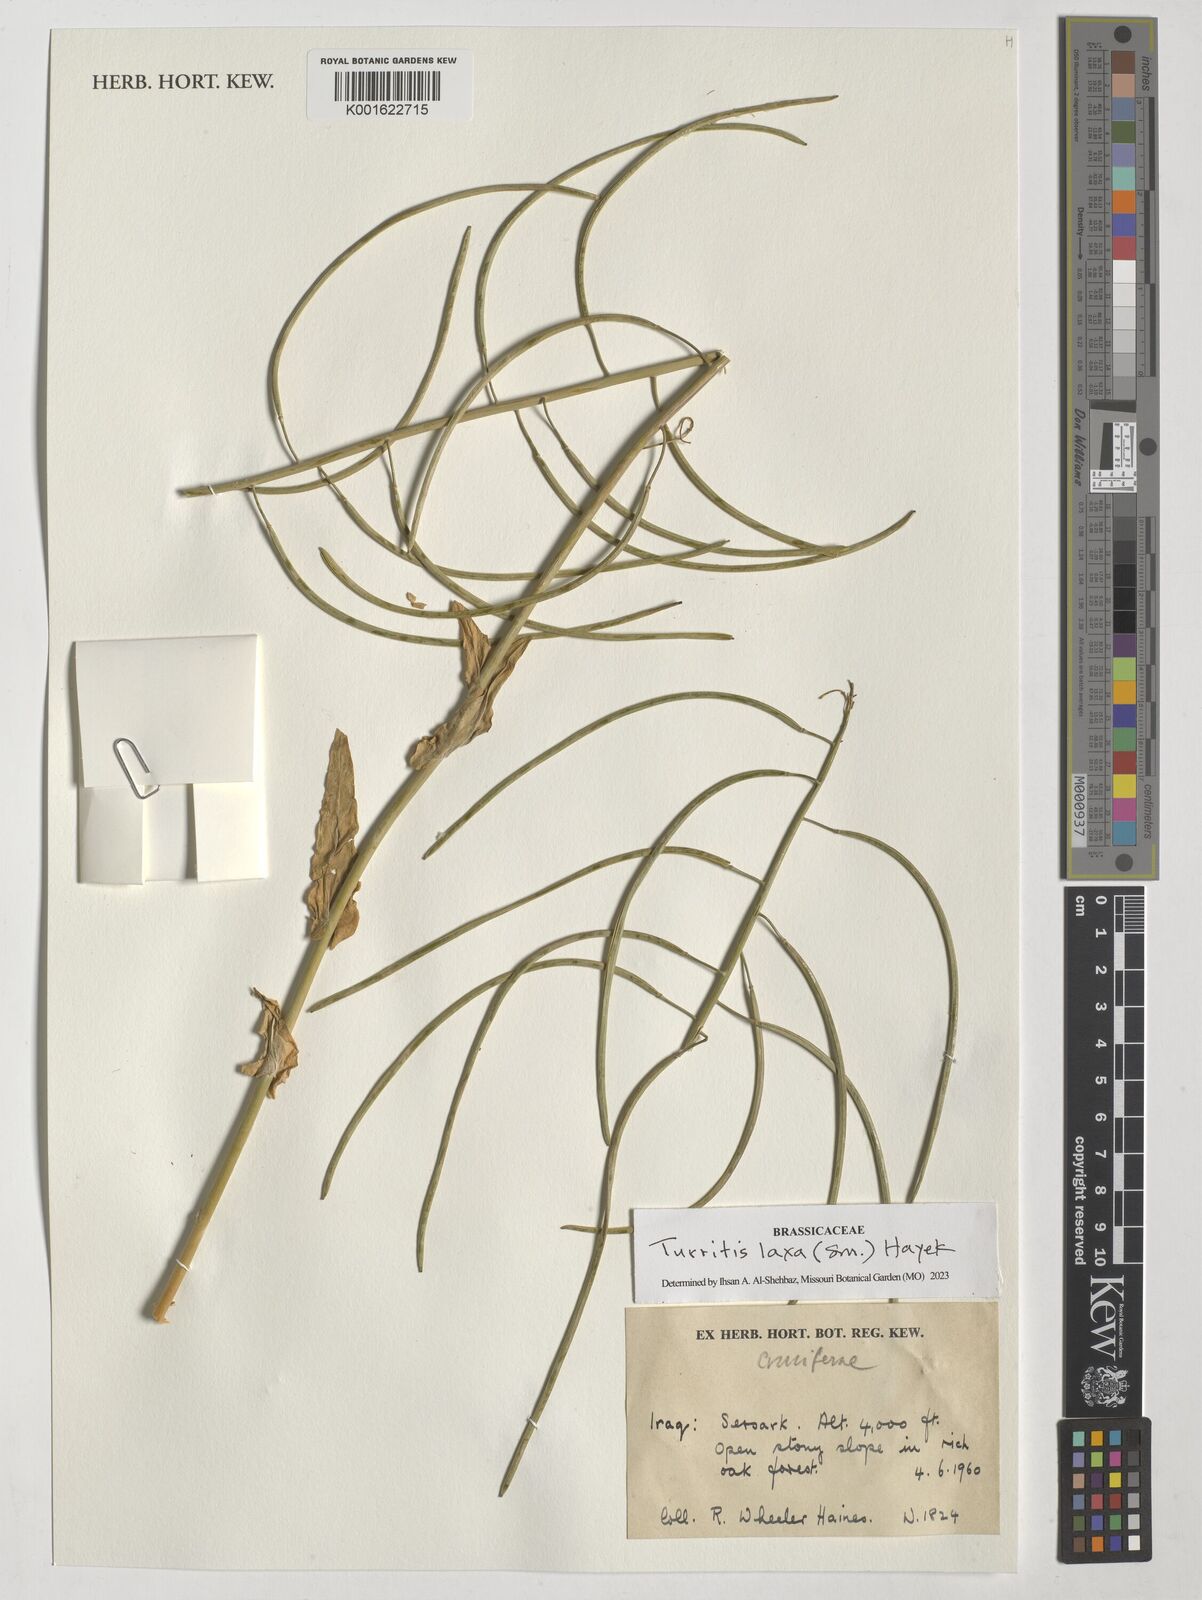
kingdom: Plantae
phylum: Tracheophyta
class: Magnoliopsida
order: Brassicales
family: Brassicaceae
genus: Turritis
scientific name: Turritis laxa
